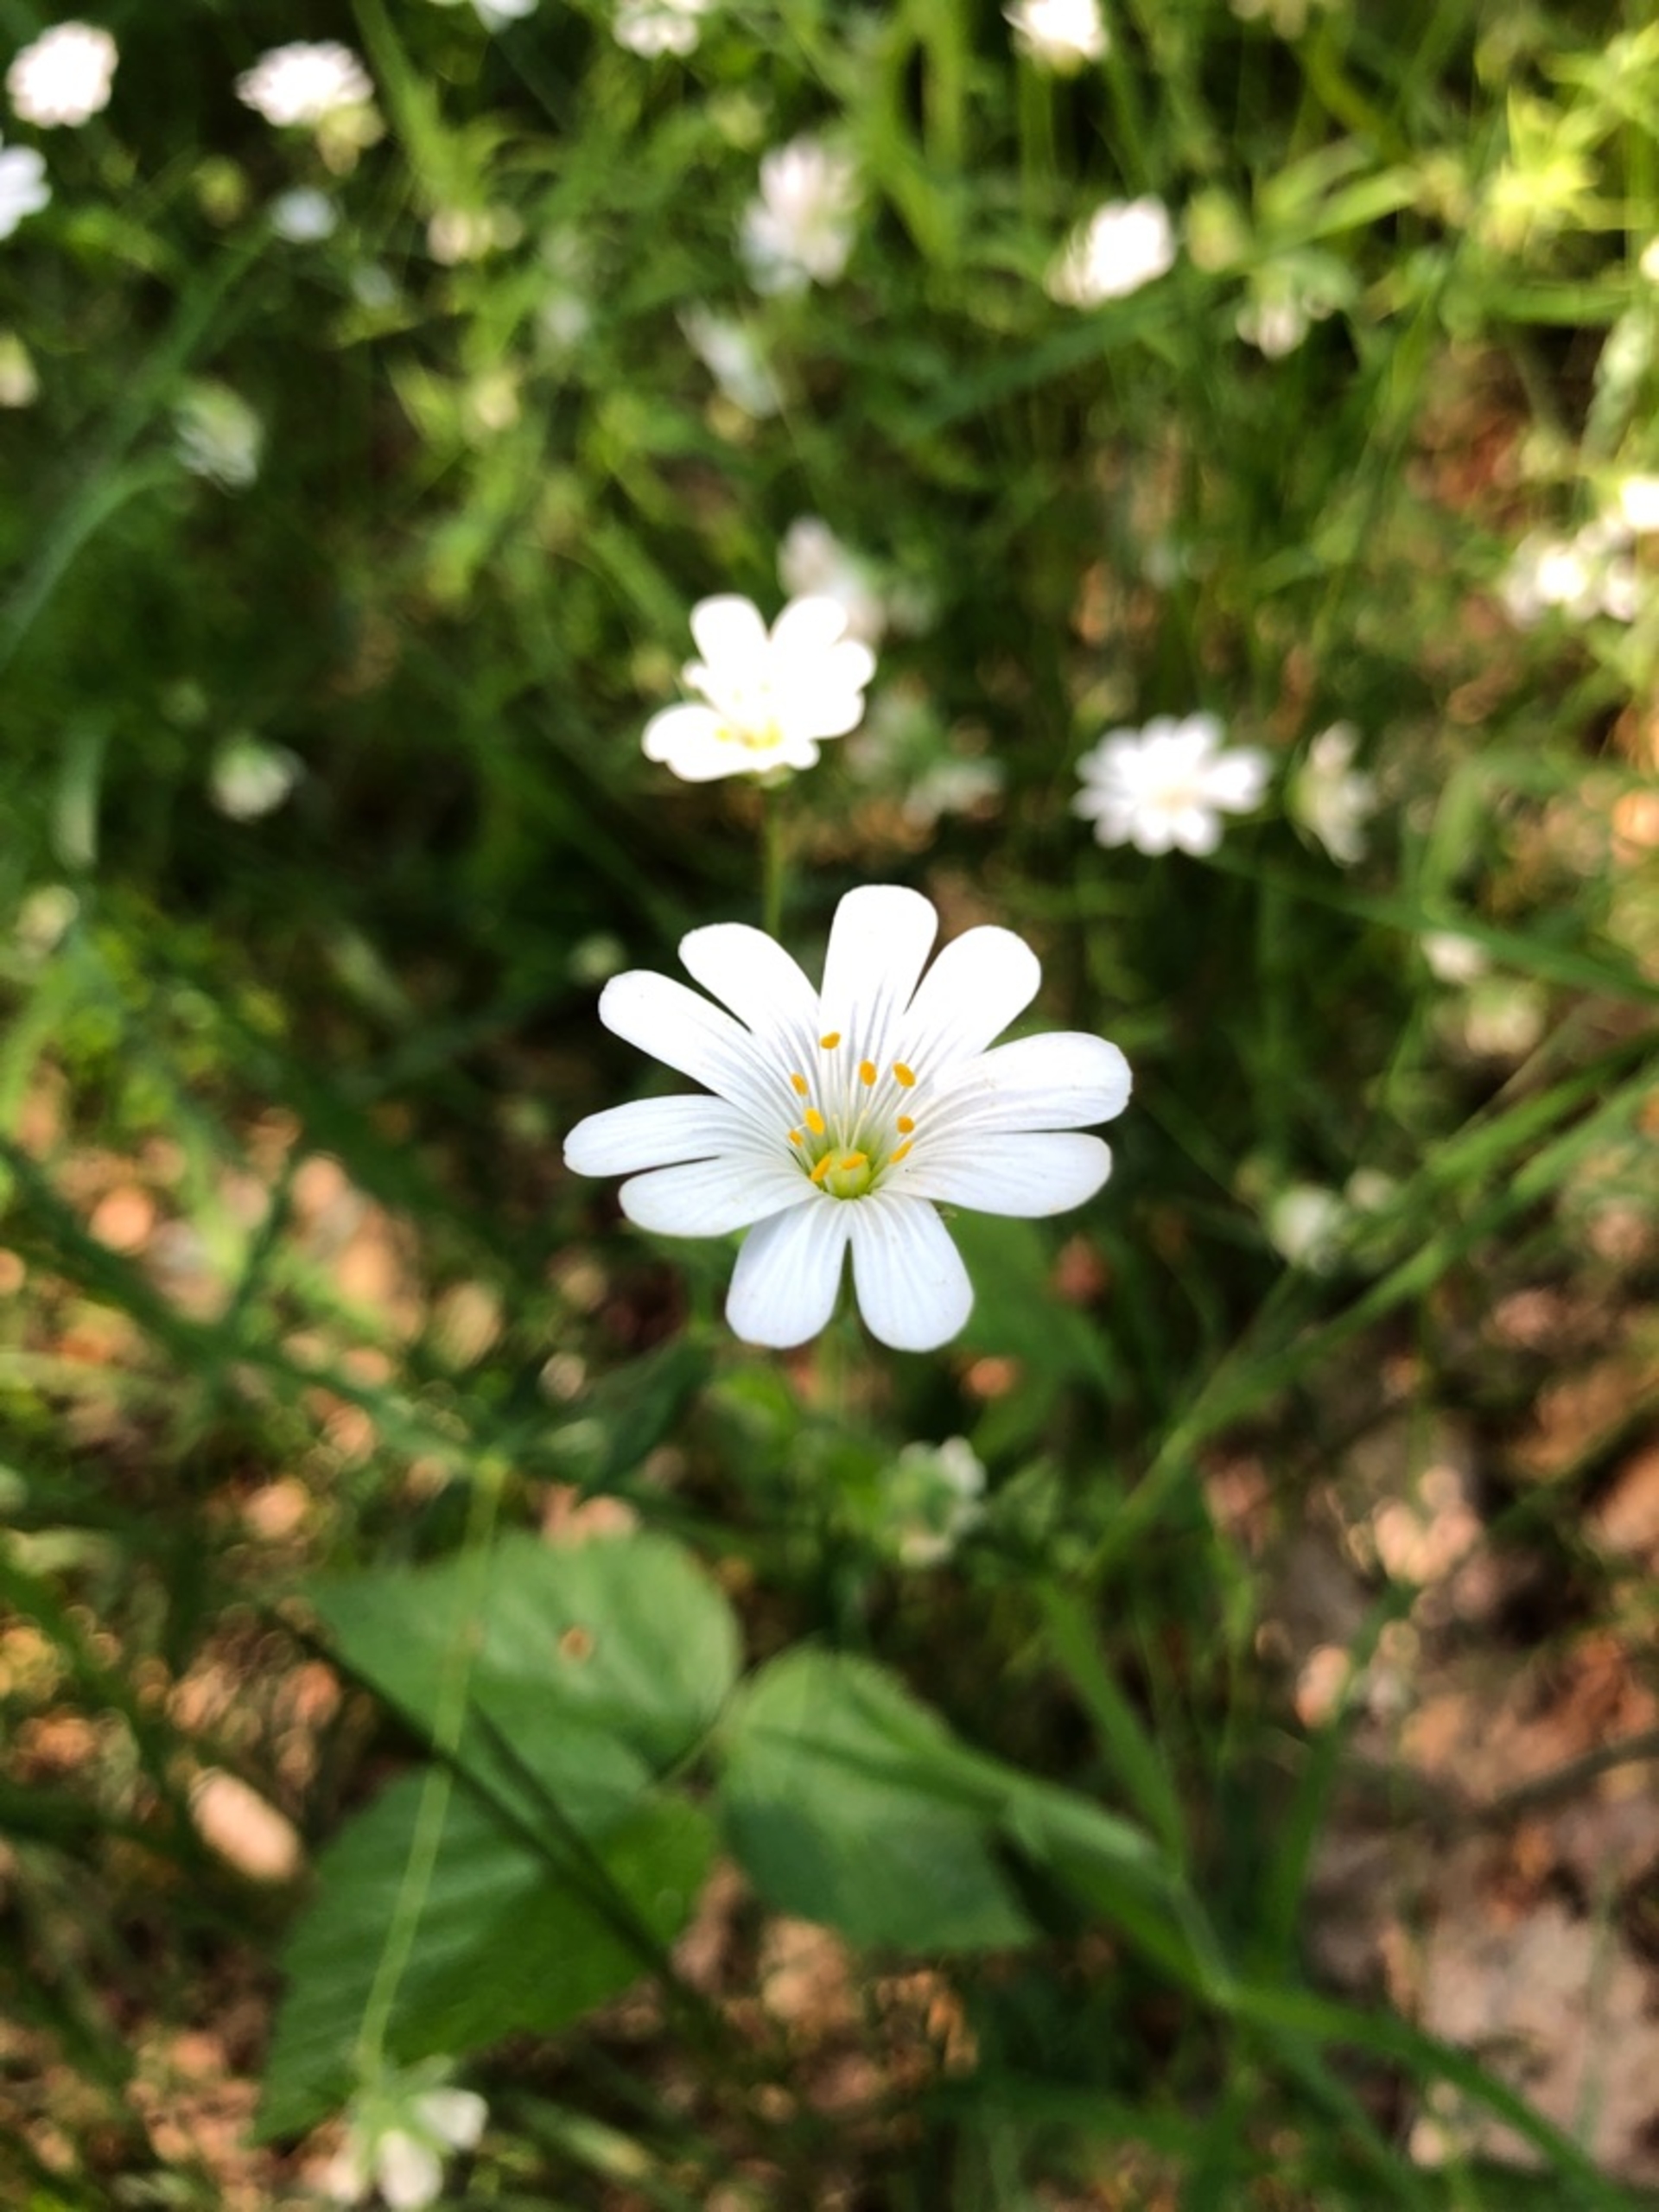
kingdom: Plantae
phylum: Tracheophyta
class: Magnoliopsida
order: Caryophyllales
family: Caryophyllaceae
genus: Rabelera
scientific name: Rabelera holostea
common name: Stor fladstjerne
